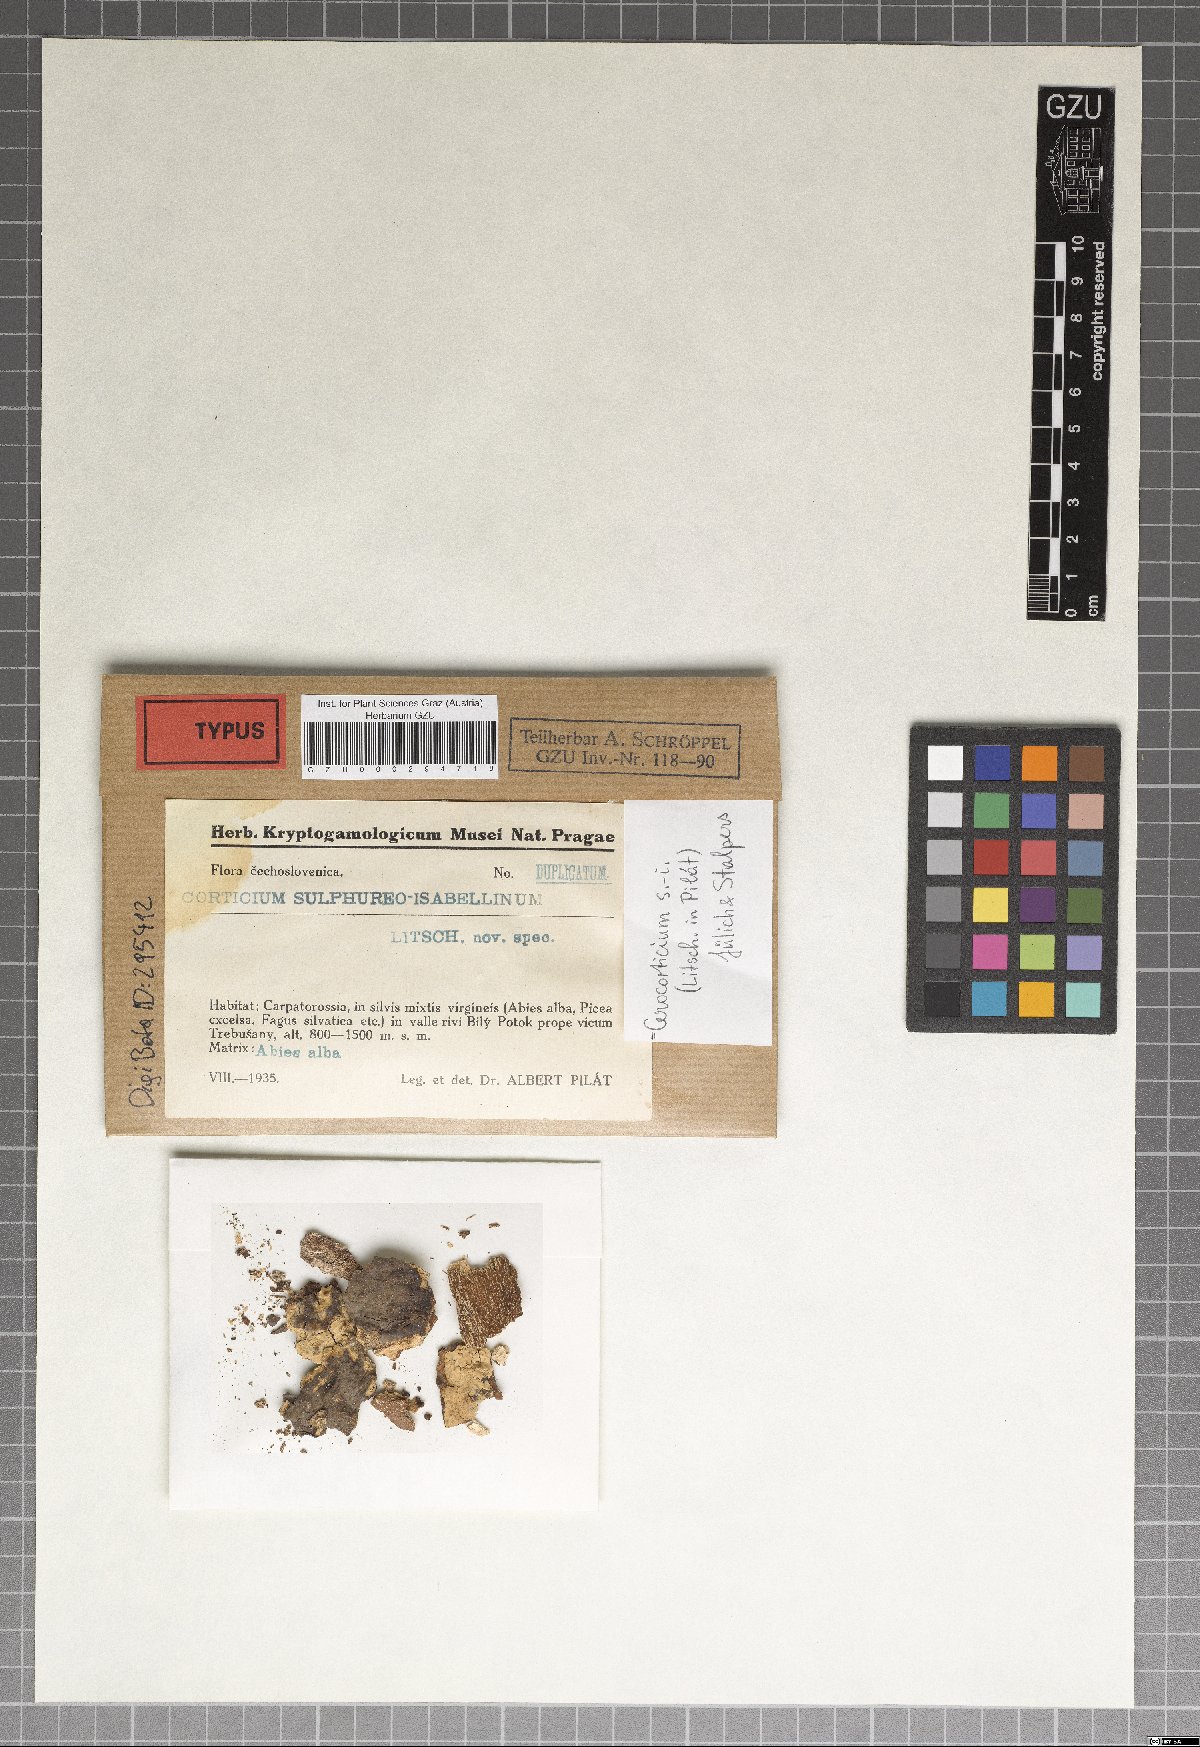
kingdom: Fungi
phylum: Basidiomycota
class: Agaricomycetes
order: Agaricales
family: Pterulaceae
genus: Cerocorticium
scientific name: Cerocorticium sulfureoisabellinum
